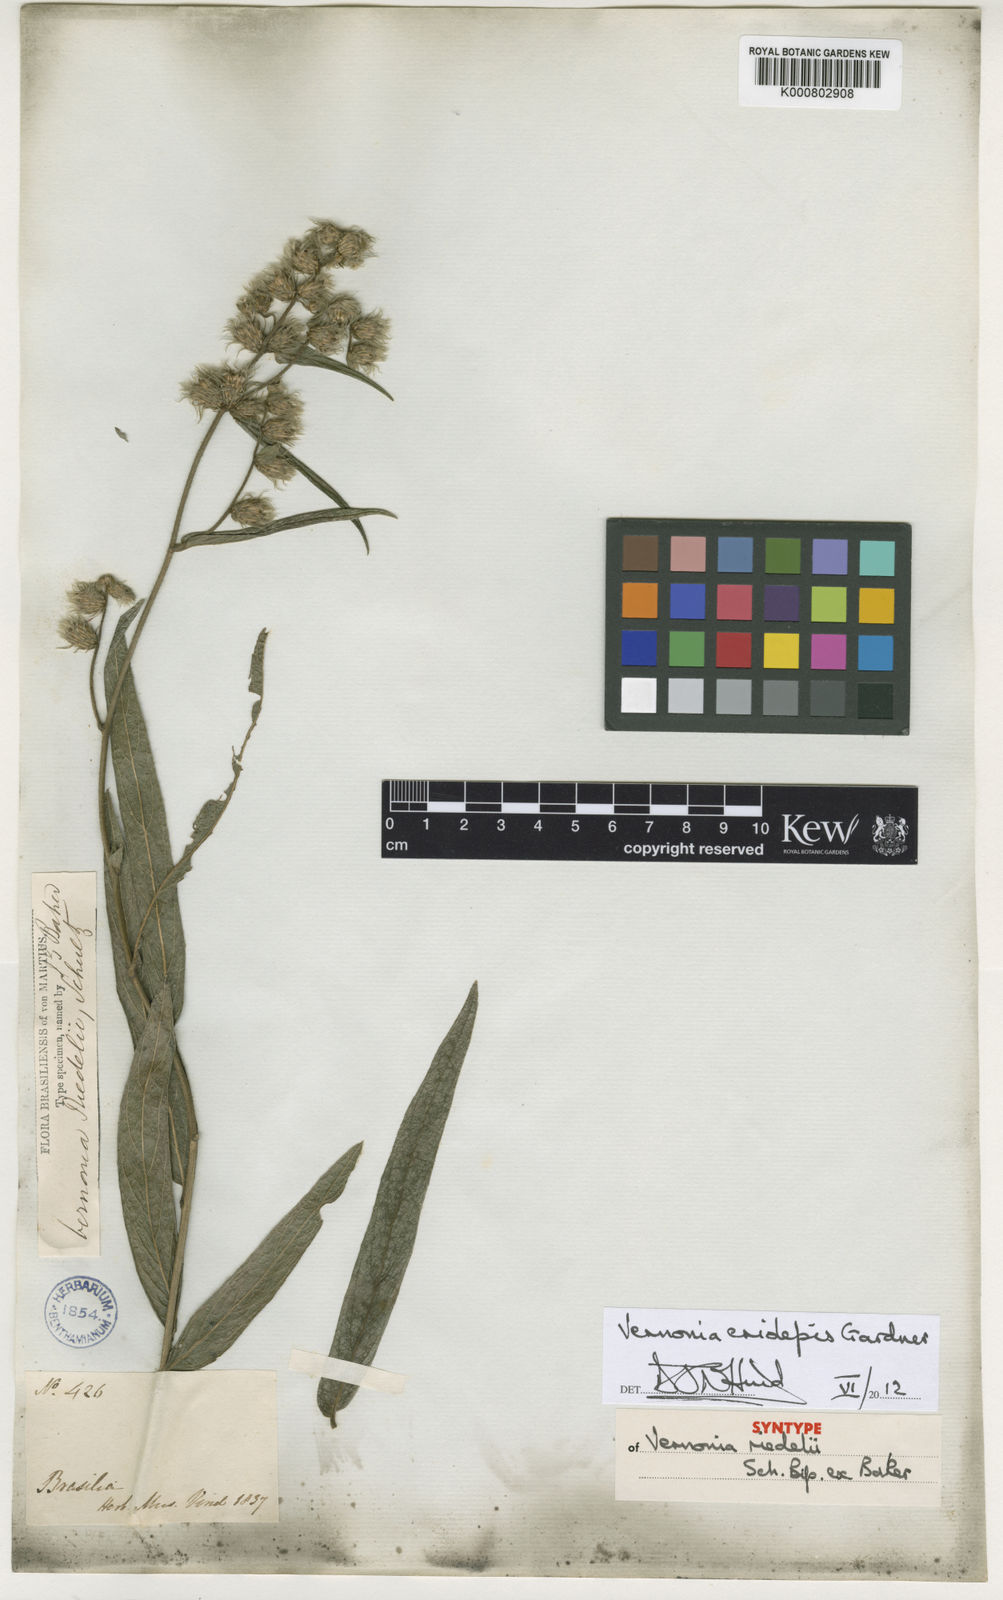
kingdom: Plantae
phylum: Tracheophyta
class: Magnoliopsida
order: Asterales
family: Asteraceae
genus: Lepidaploa
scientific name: Lepidaploa eriolepis
